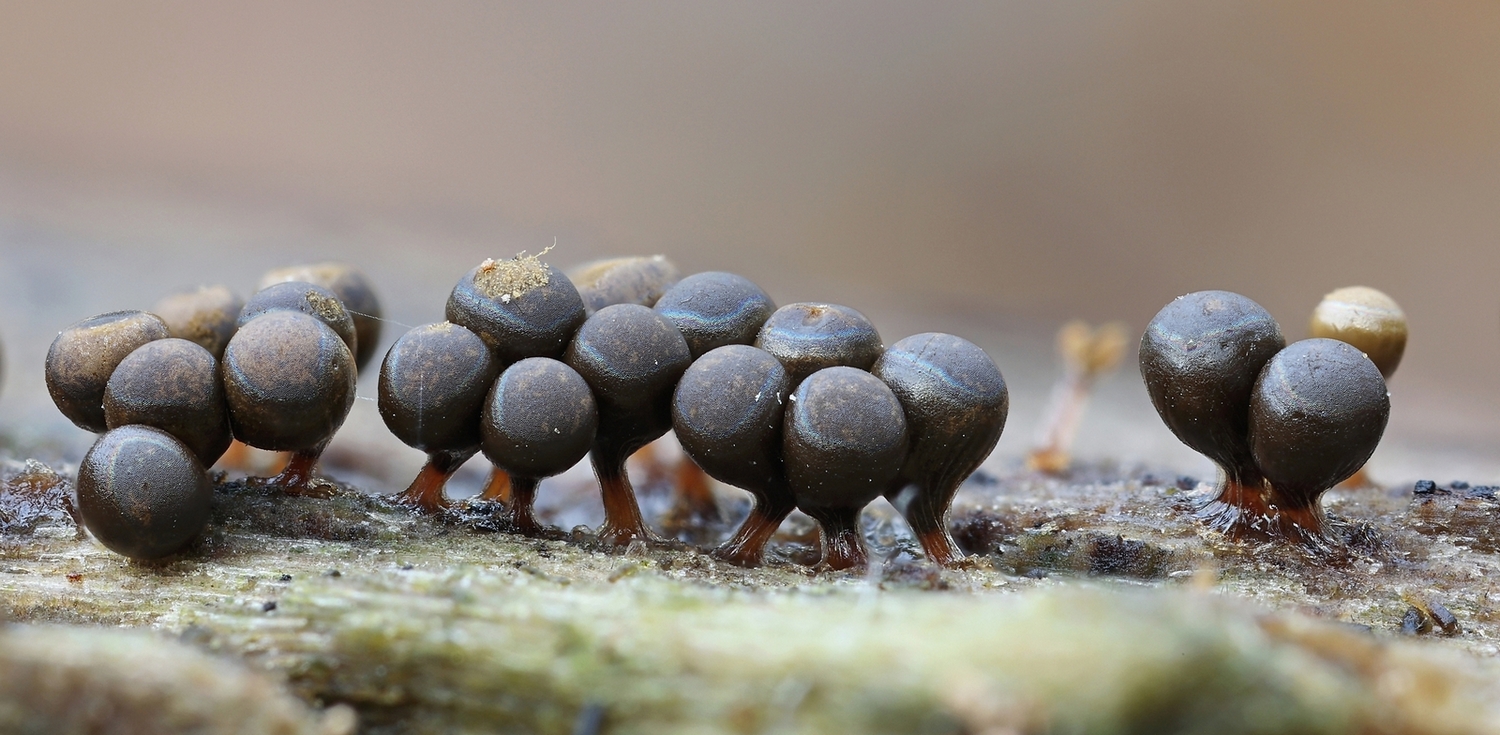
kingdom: Protozoa
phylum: Mycetozoa
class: Myxomycetes
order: Trichiales
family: Trichiaceae
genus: Trichia
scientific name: Trichia crateriformis
